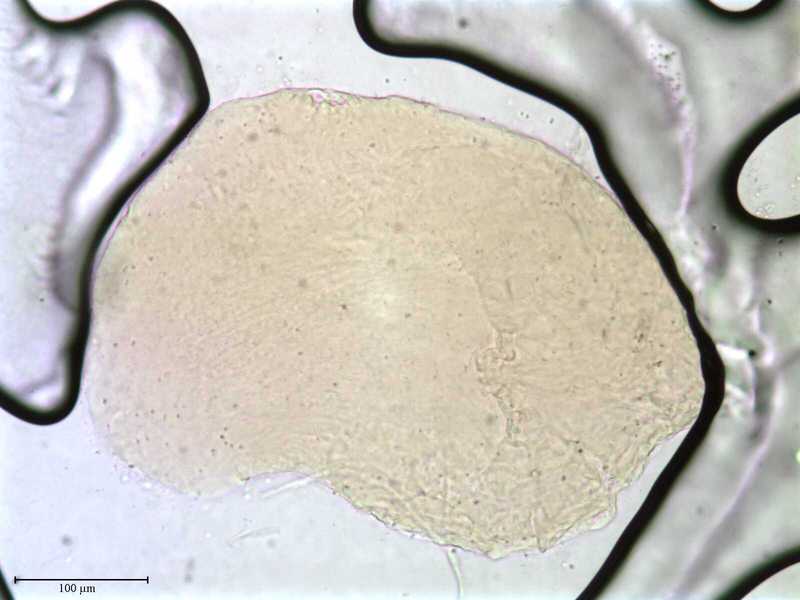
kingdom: Animalia
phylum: Arthropoda
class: Arachnida
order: Mesostigmata
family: Entonyssidae
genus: Entophionyssus
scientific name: Entophionyssus glasmacheri
